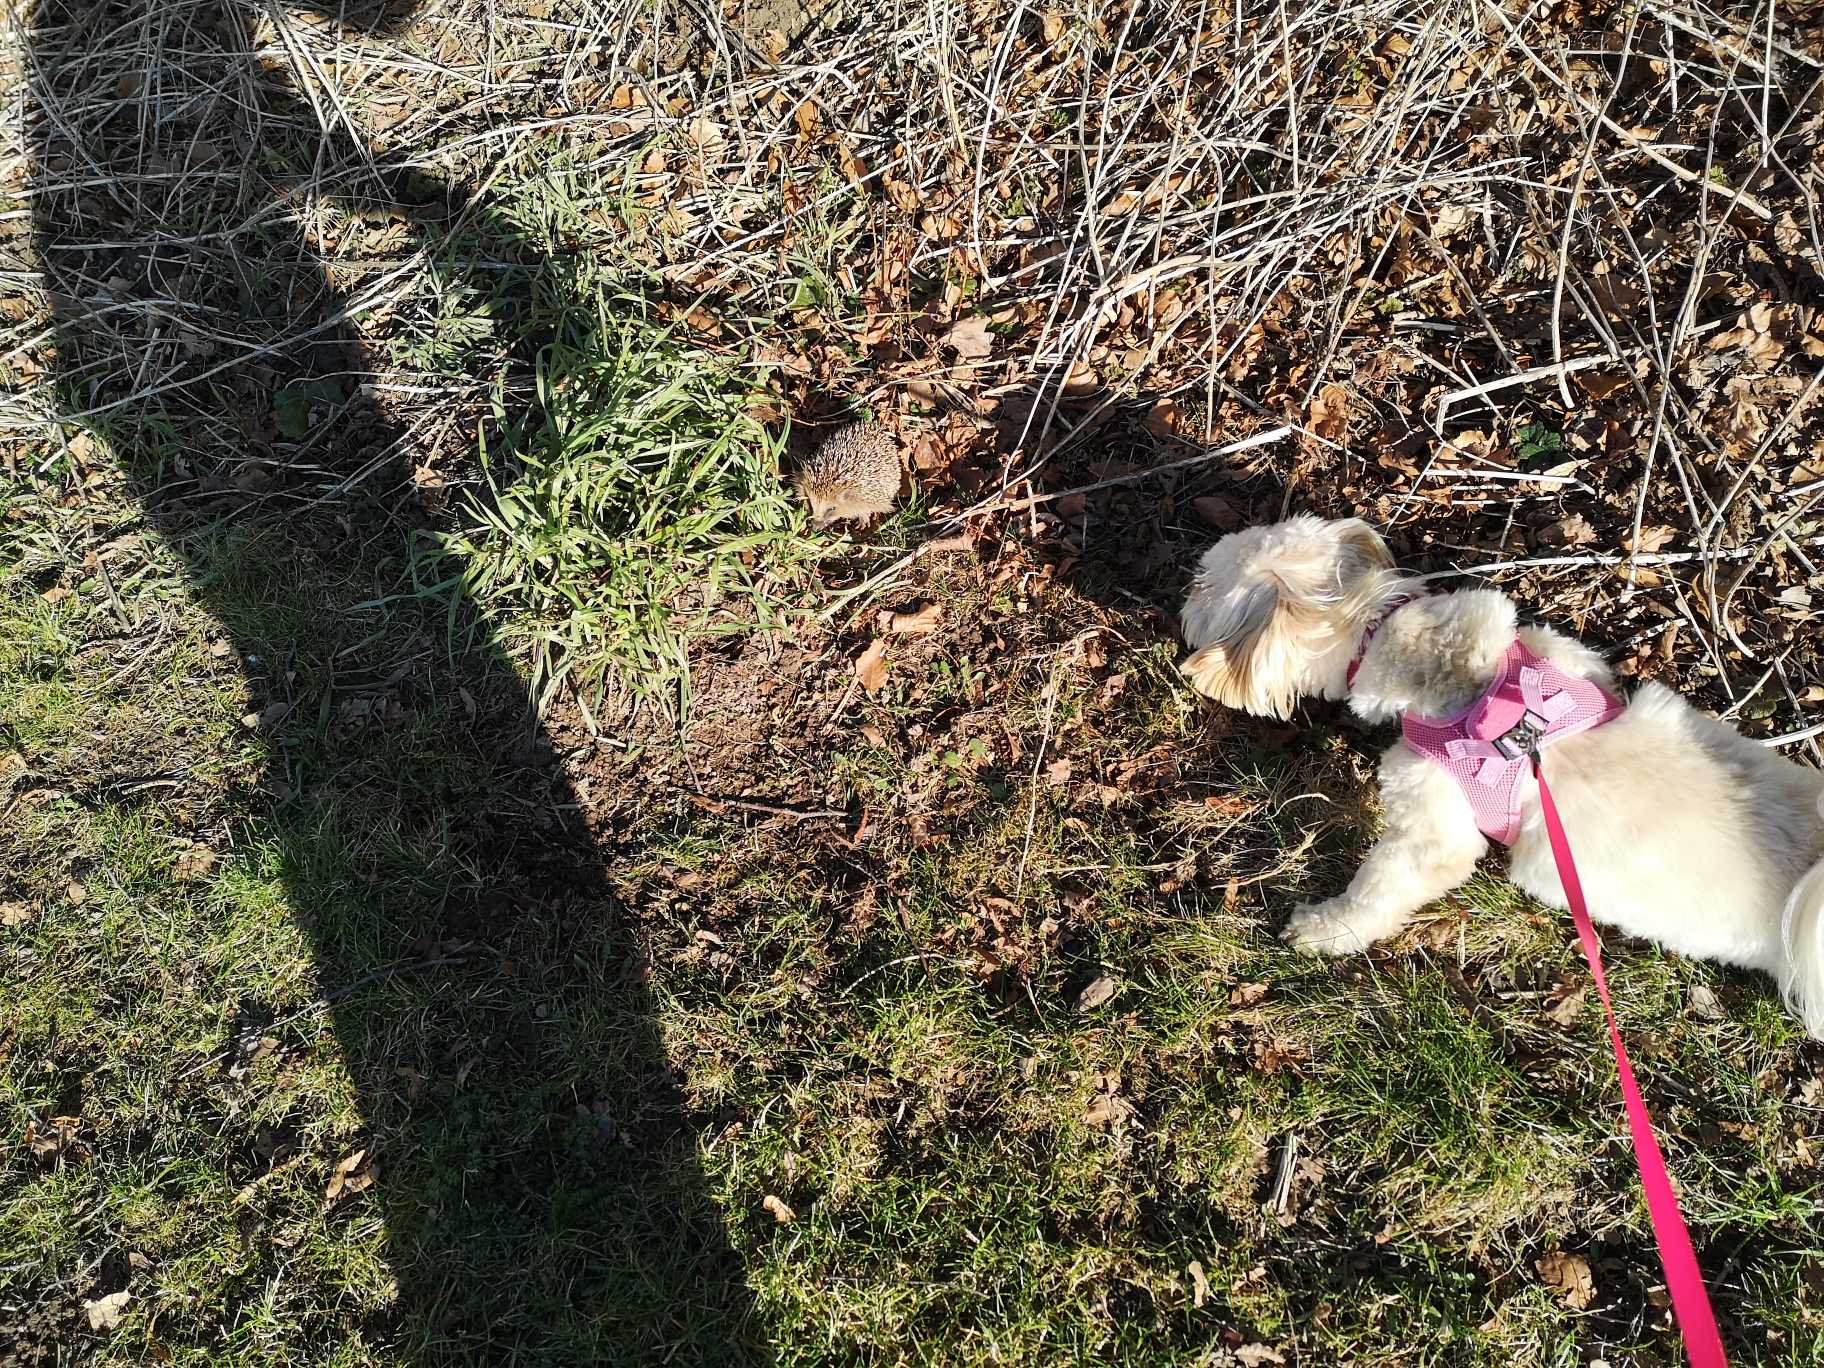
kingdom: Animalia
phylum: Chordata
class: Mammalia
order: Erinaceomorpha
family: Erinaceidae
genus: Erinaceus
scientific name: Erinaceus europaeus
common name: Pindsvin
